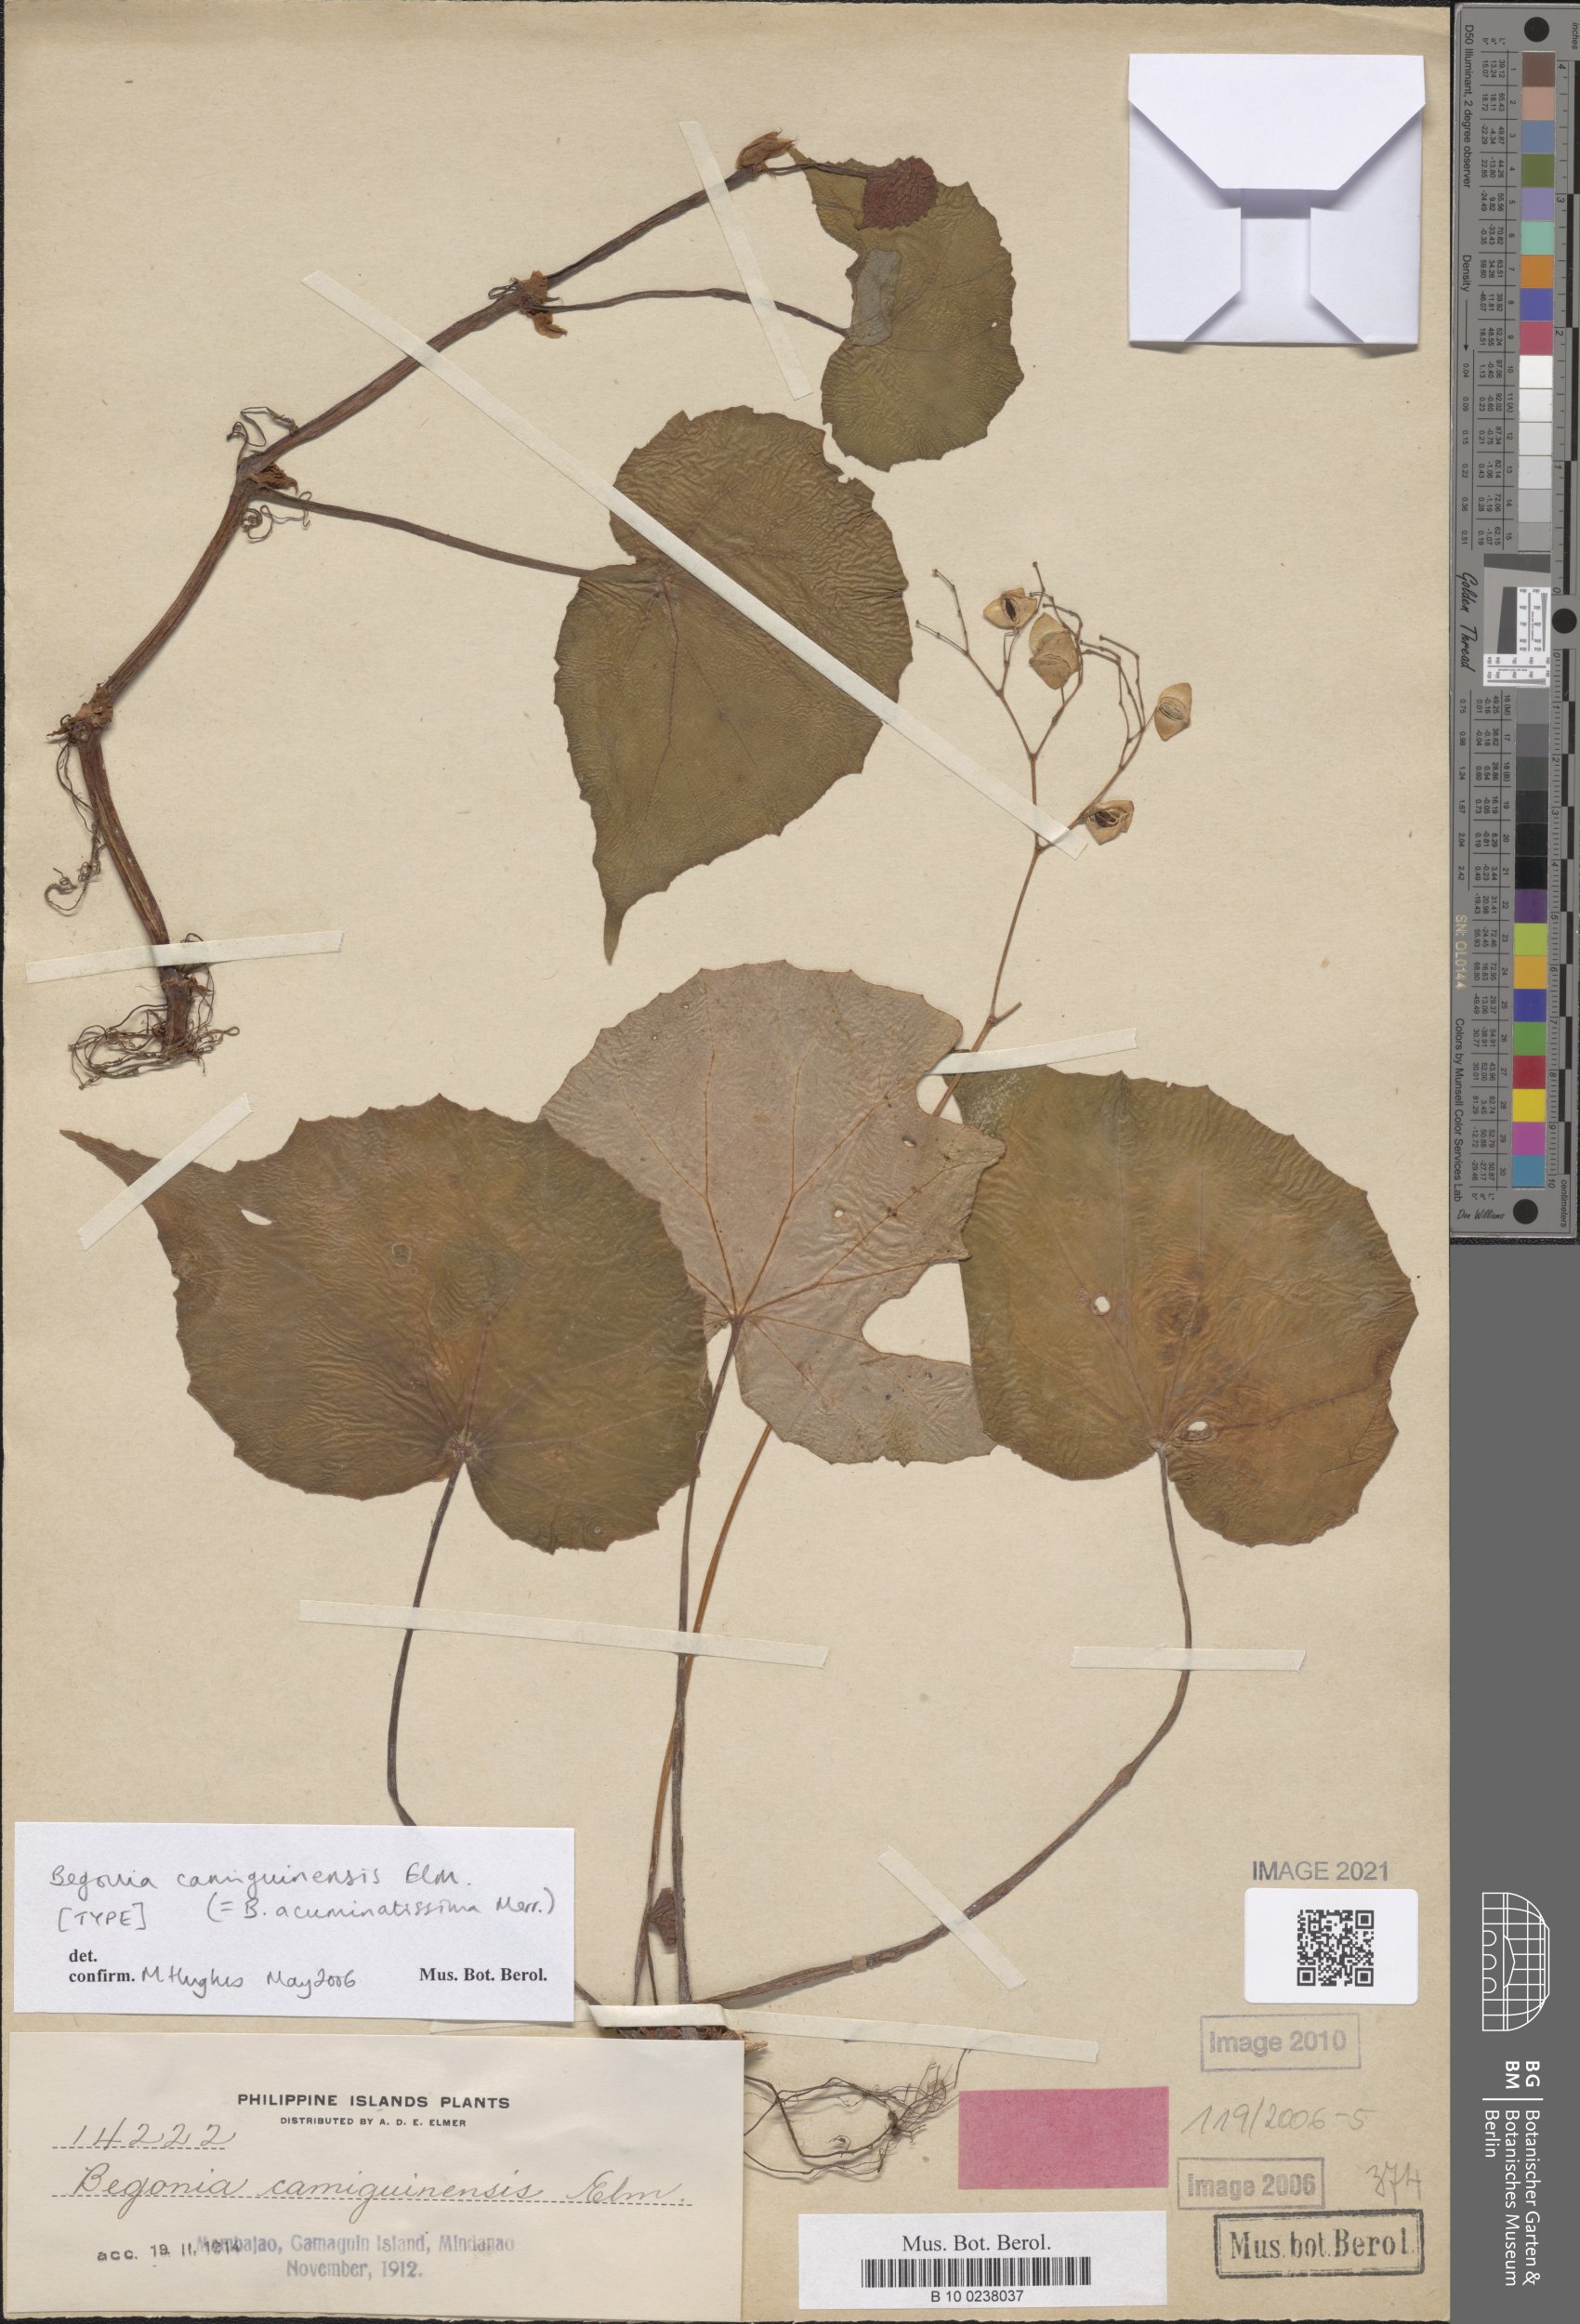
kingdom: Plantae
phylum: Tracheophyta
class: Magnoliopsida
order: Cucurbitales
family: Begoniaceae
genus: Begonia
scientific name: Begonia acuminatissima
